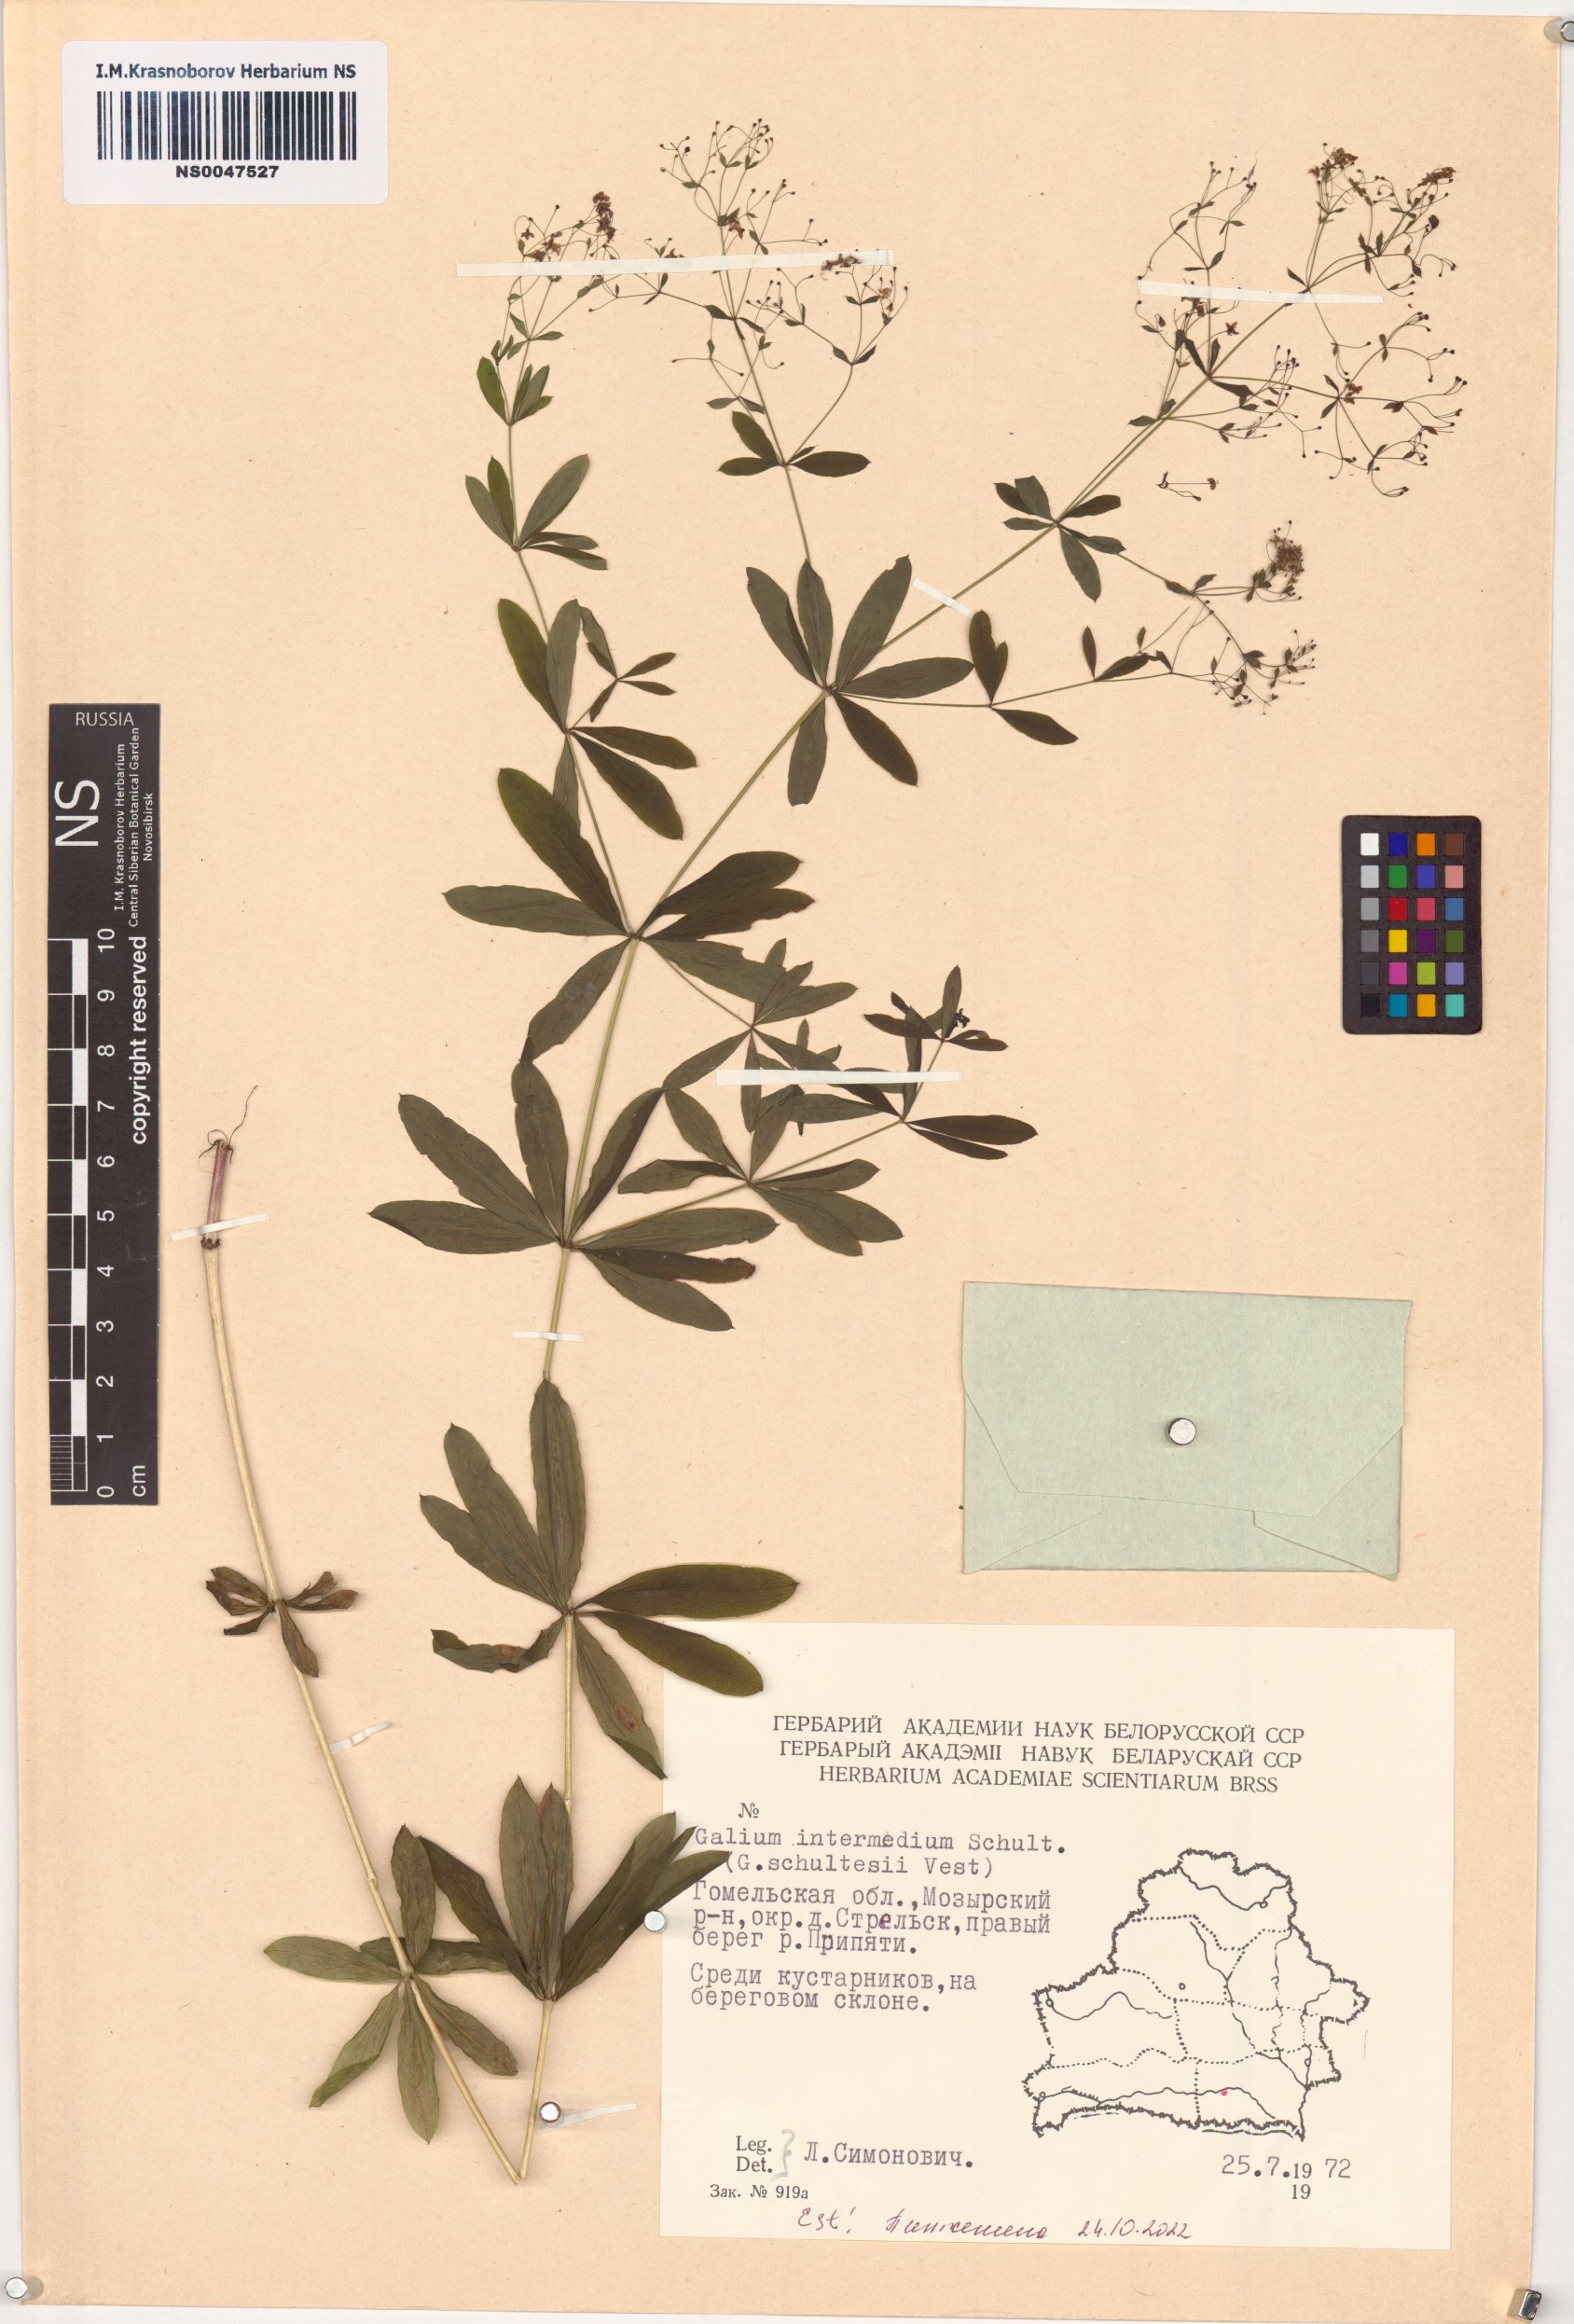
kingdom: Plantae
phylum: Tracheophyta
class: Magnoliopsida
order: Gentianales
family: Rubiaceae
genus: Galium
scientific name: Galium intermedium
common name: Bedstraw
